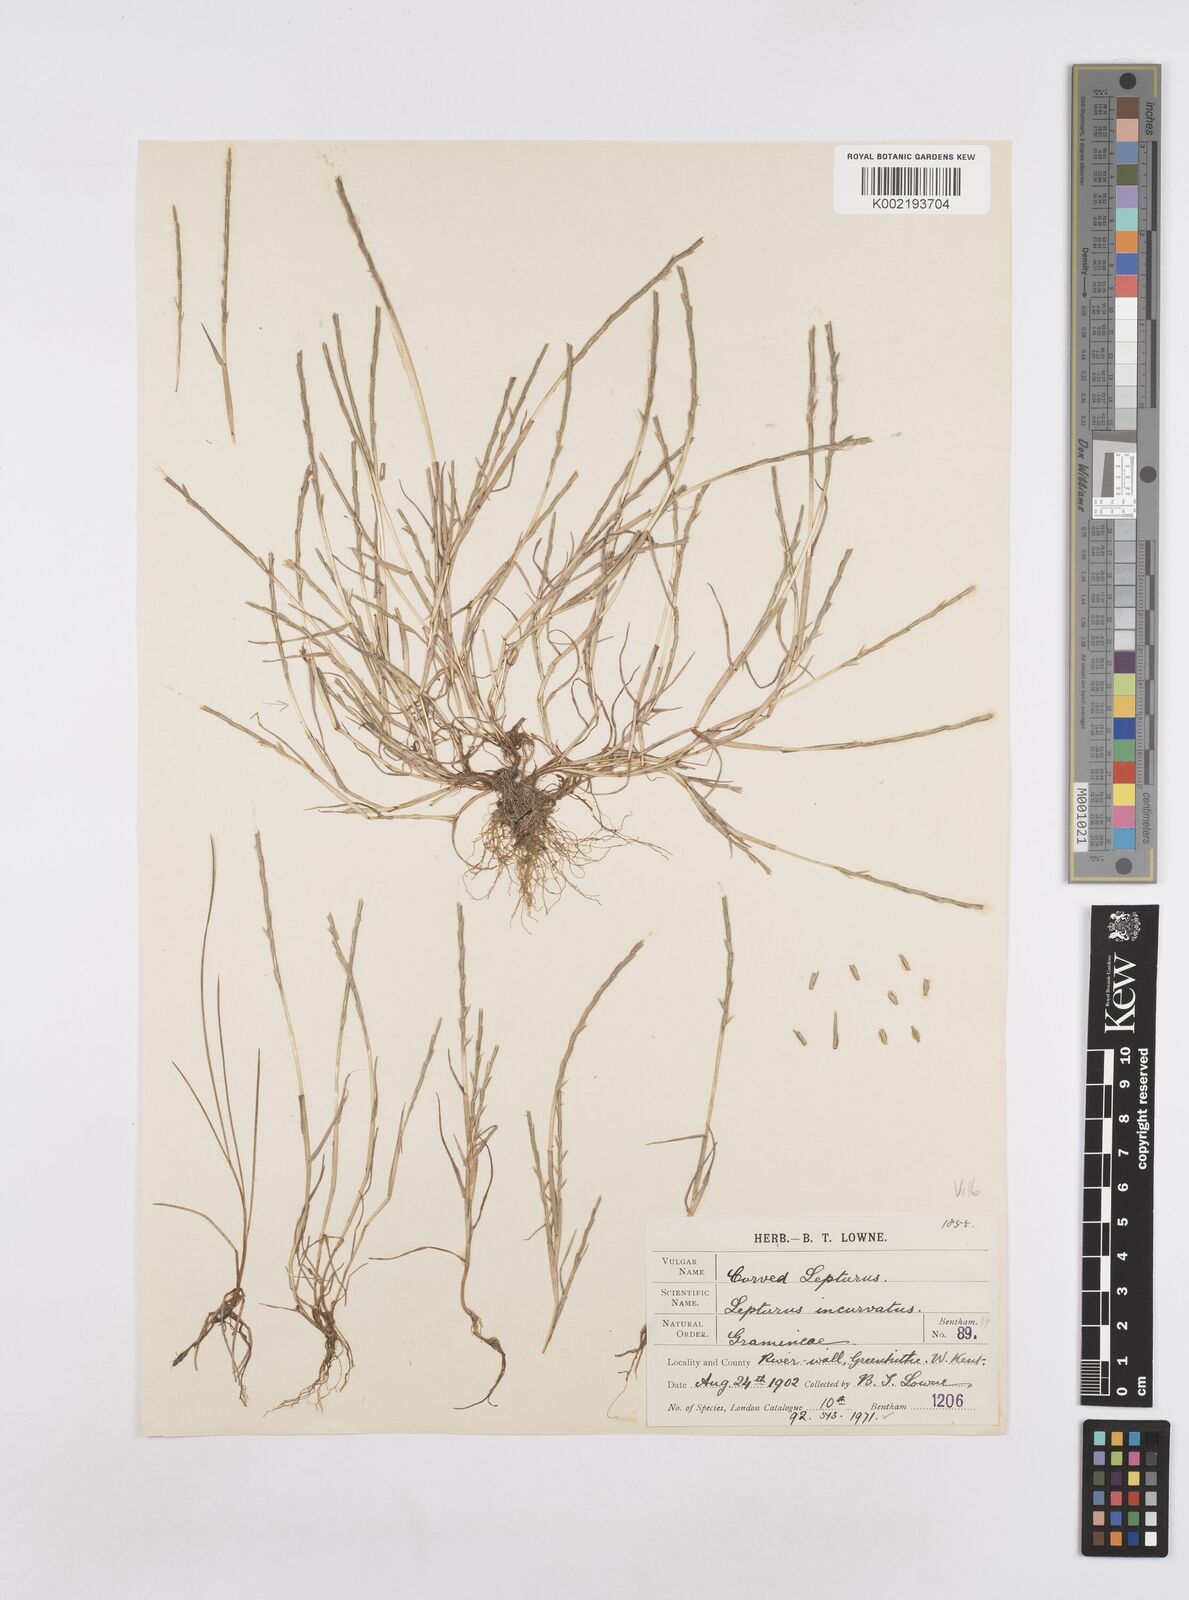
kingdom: Plantae
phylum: Tracheophyta
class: Liliopsida
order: Poales
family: Poaceae
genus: Parapholis
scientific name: Parapholis strigosa
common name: Hard-grass
